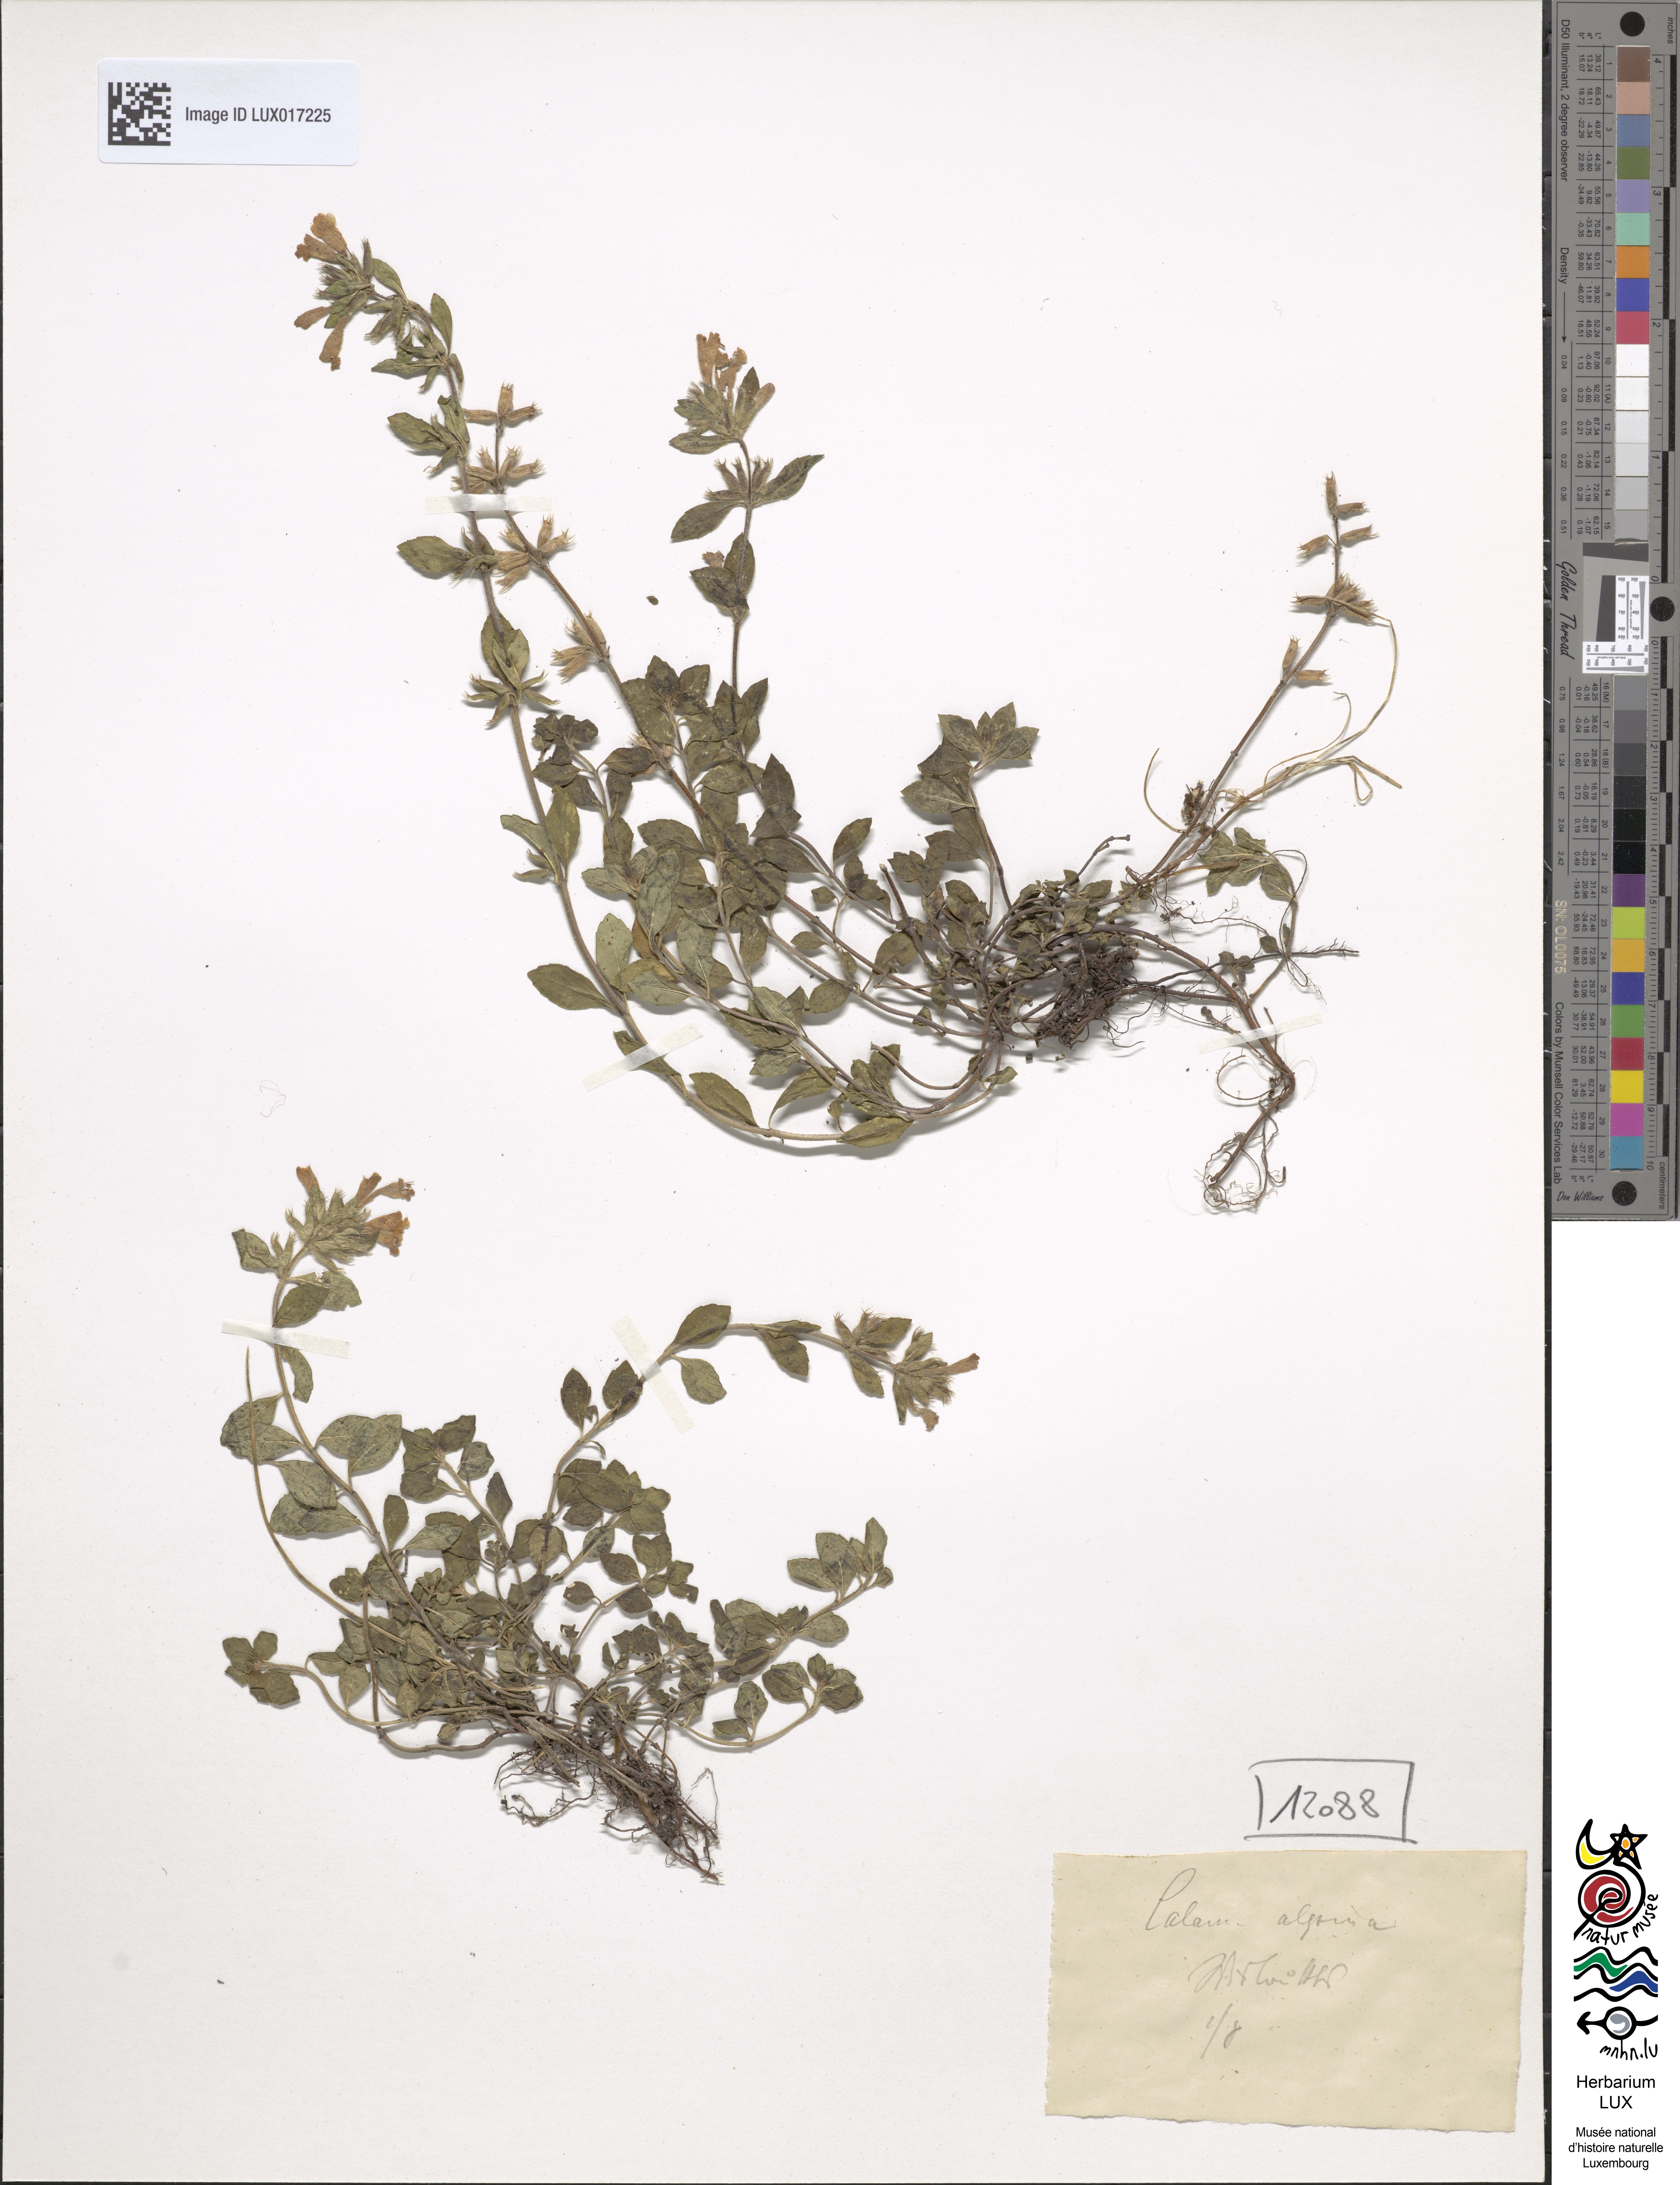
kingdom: Plantae
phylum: Tracheophyta
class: Magnoliopsida
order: Lamiales
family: Lamiaceae
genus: Clinopodium
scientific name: Clinopodium alpinum
